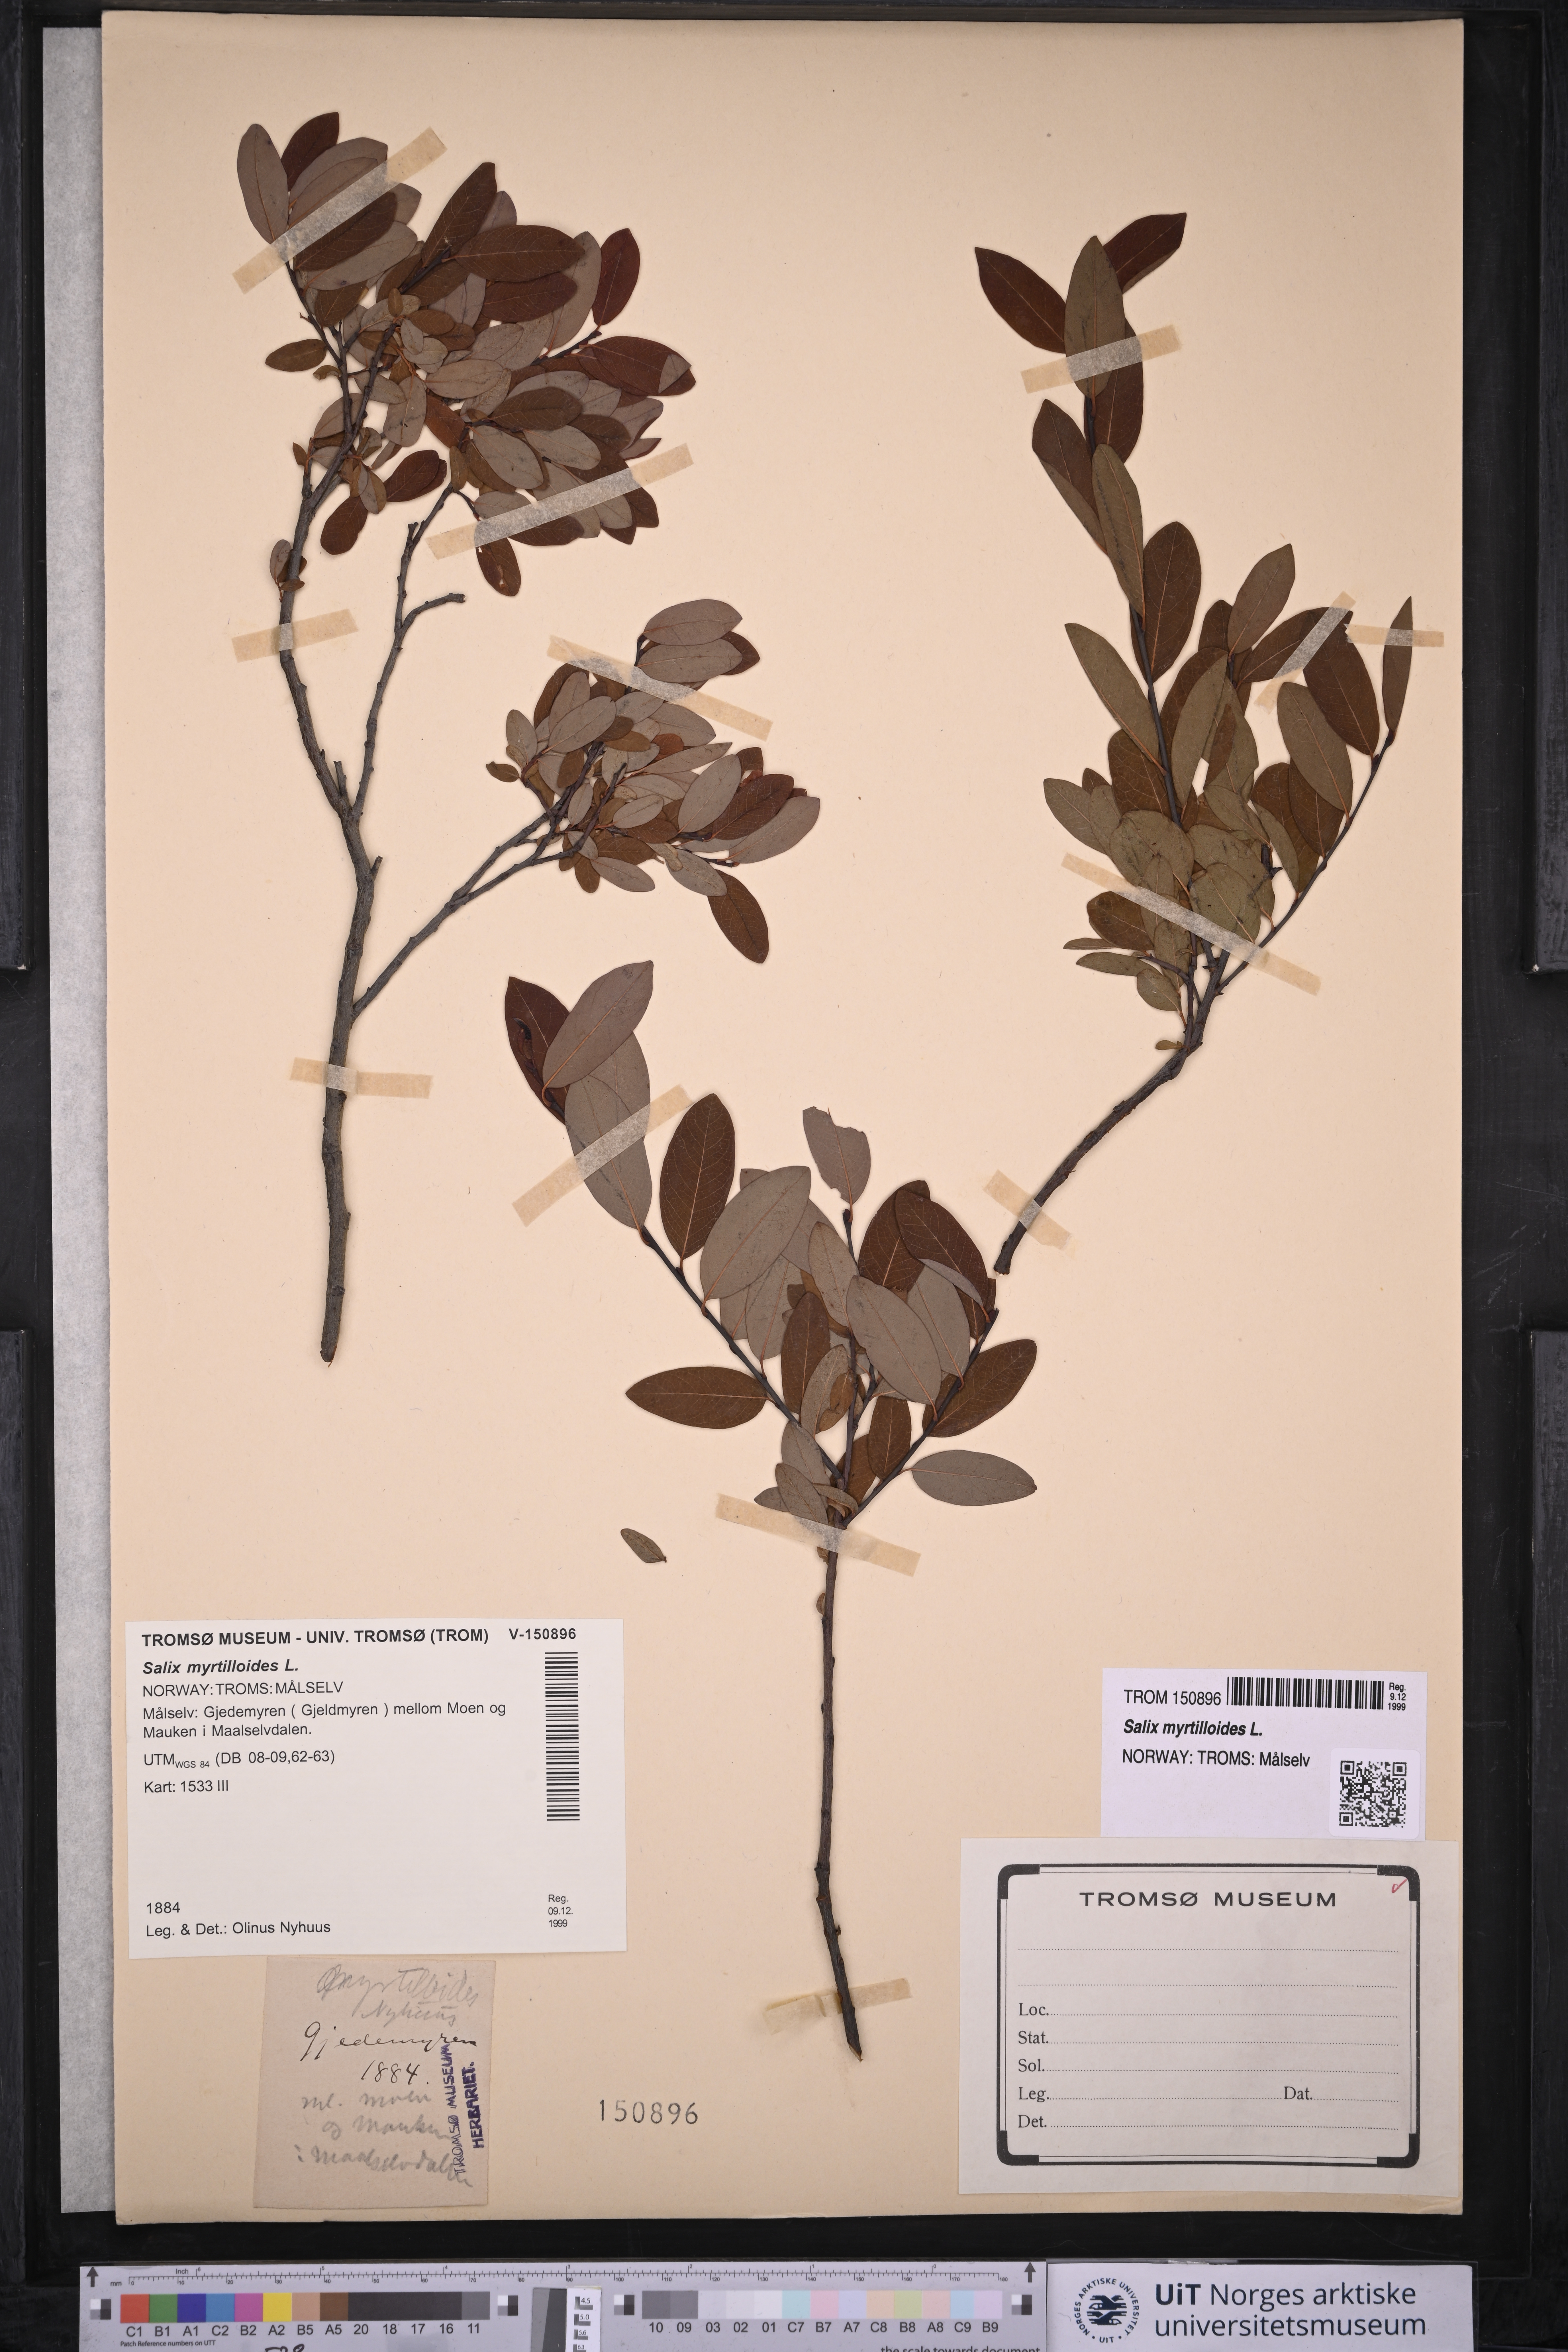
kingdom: Plantae
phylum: Tracheophyta
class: Magnoliopsida
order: Malpighiales
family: Salicaceae
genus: Salix
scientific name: Salix myrtilloides
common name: Myrtle-leaved willow
